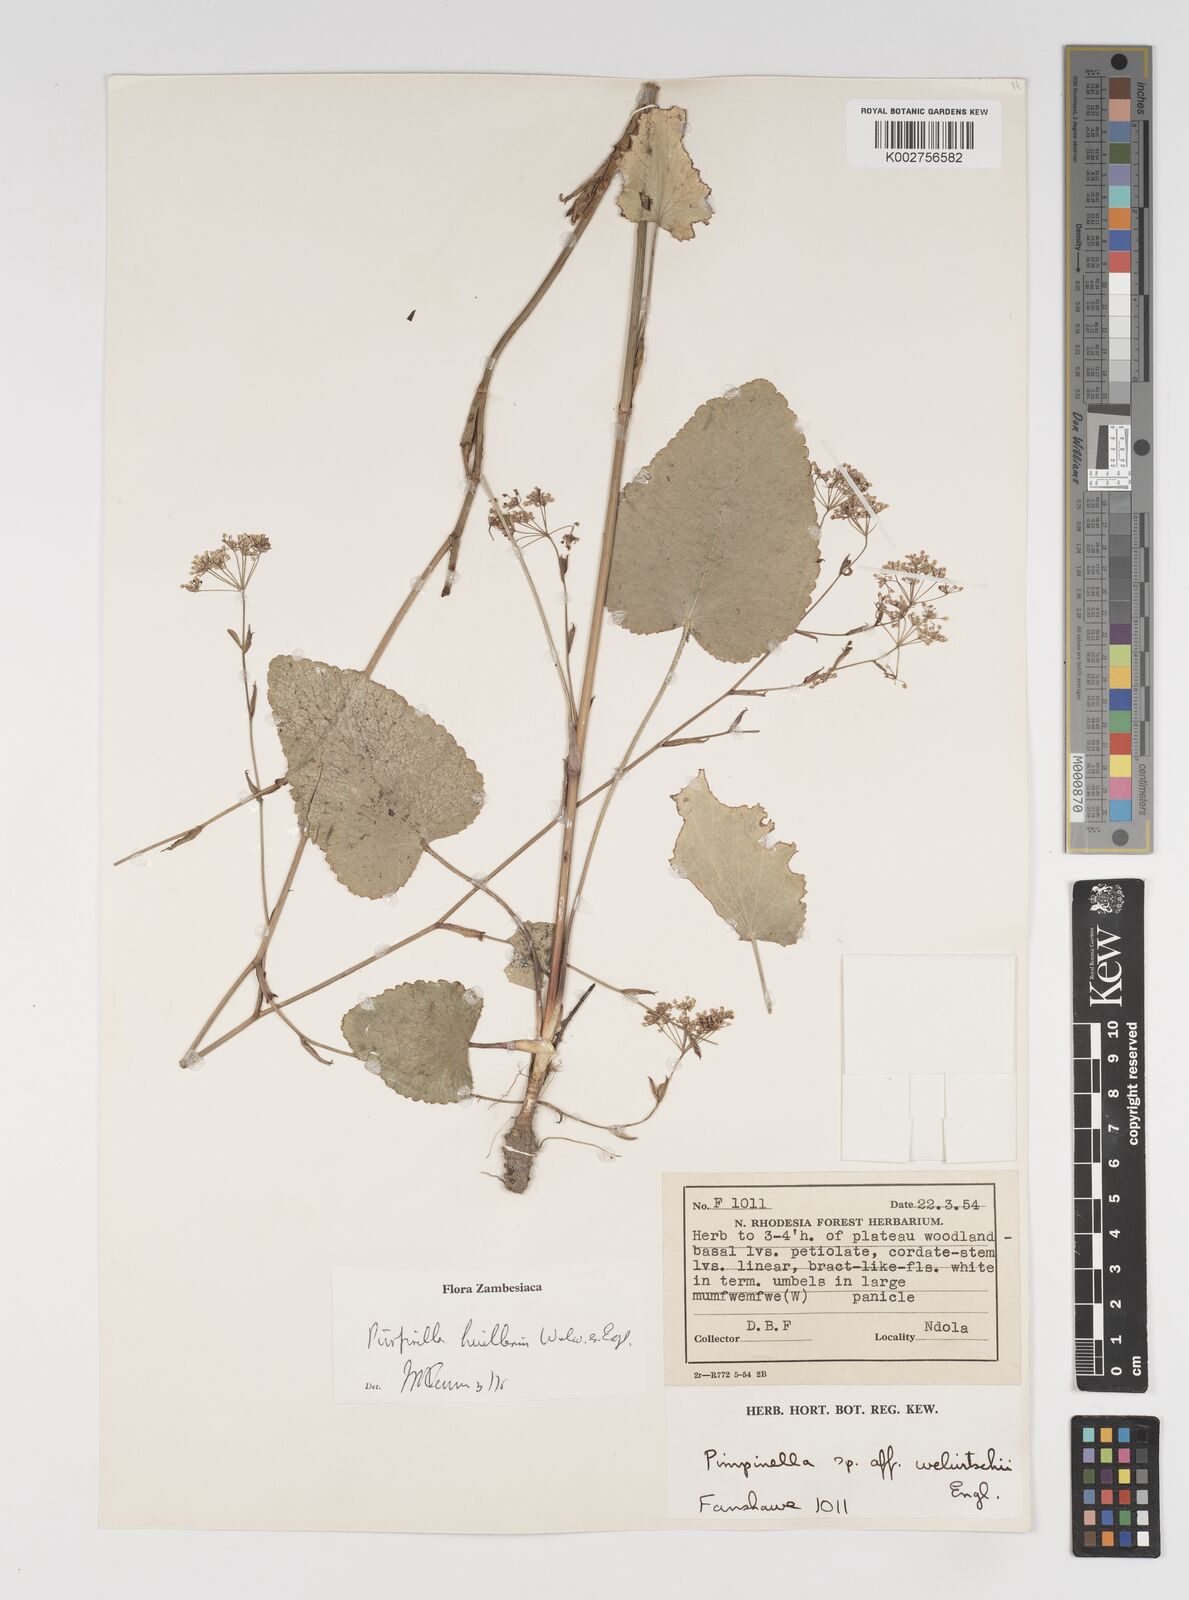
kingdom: Plantae
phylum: Tracheophyta
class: Magnoliopsida
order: Apiales
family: Apiaceae
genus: Pimpinella
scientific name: Pimpinella huillensis
